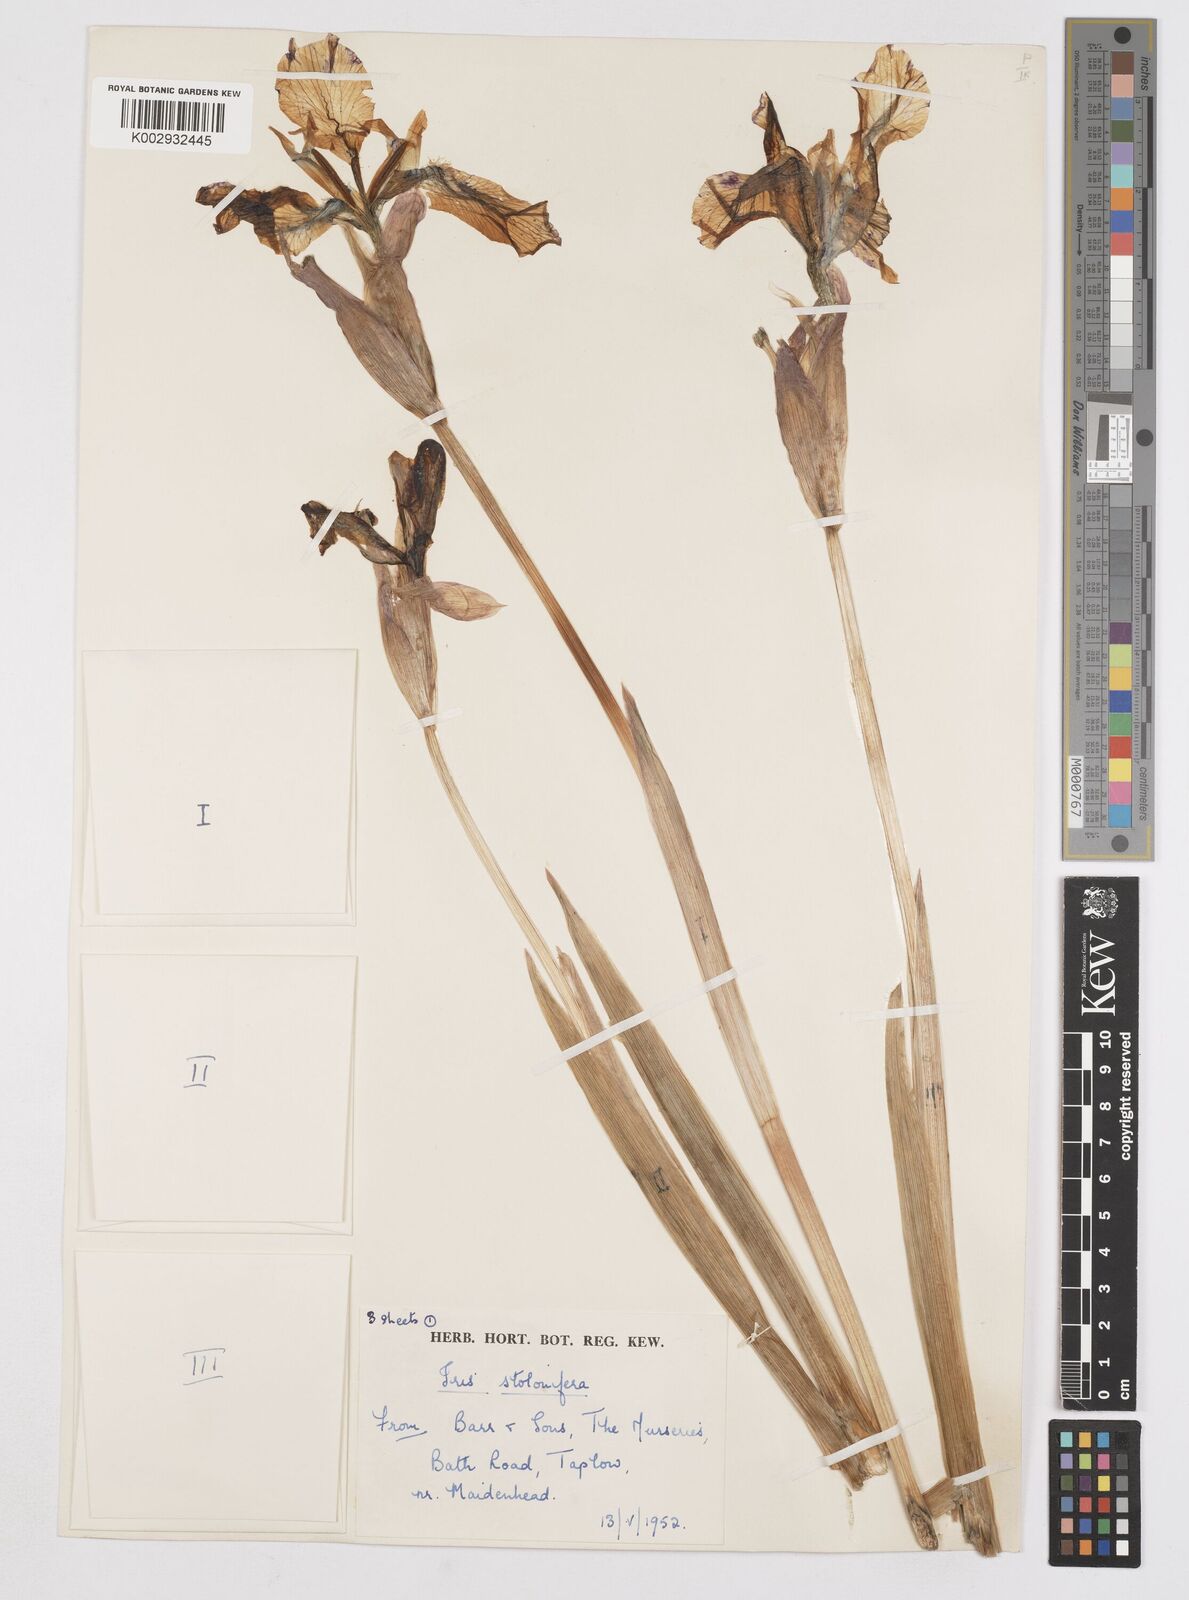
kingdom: Plantae
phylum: Tracheophyta
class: Liliopsida
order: Asparagales
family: Iridaceae
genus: Iris
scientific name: Iris stolonifera
